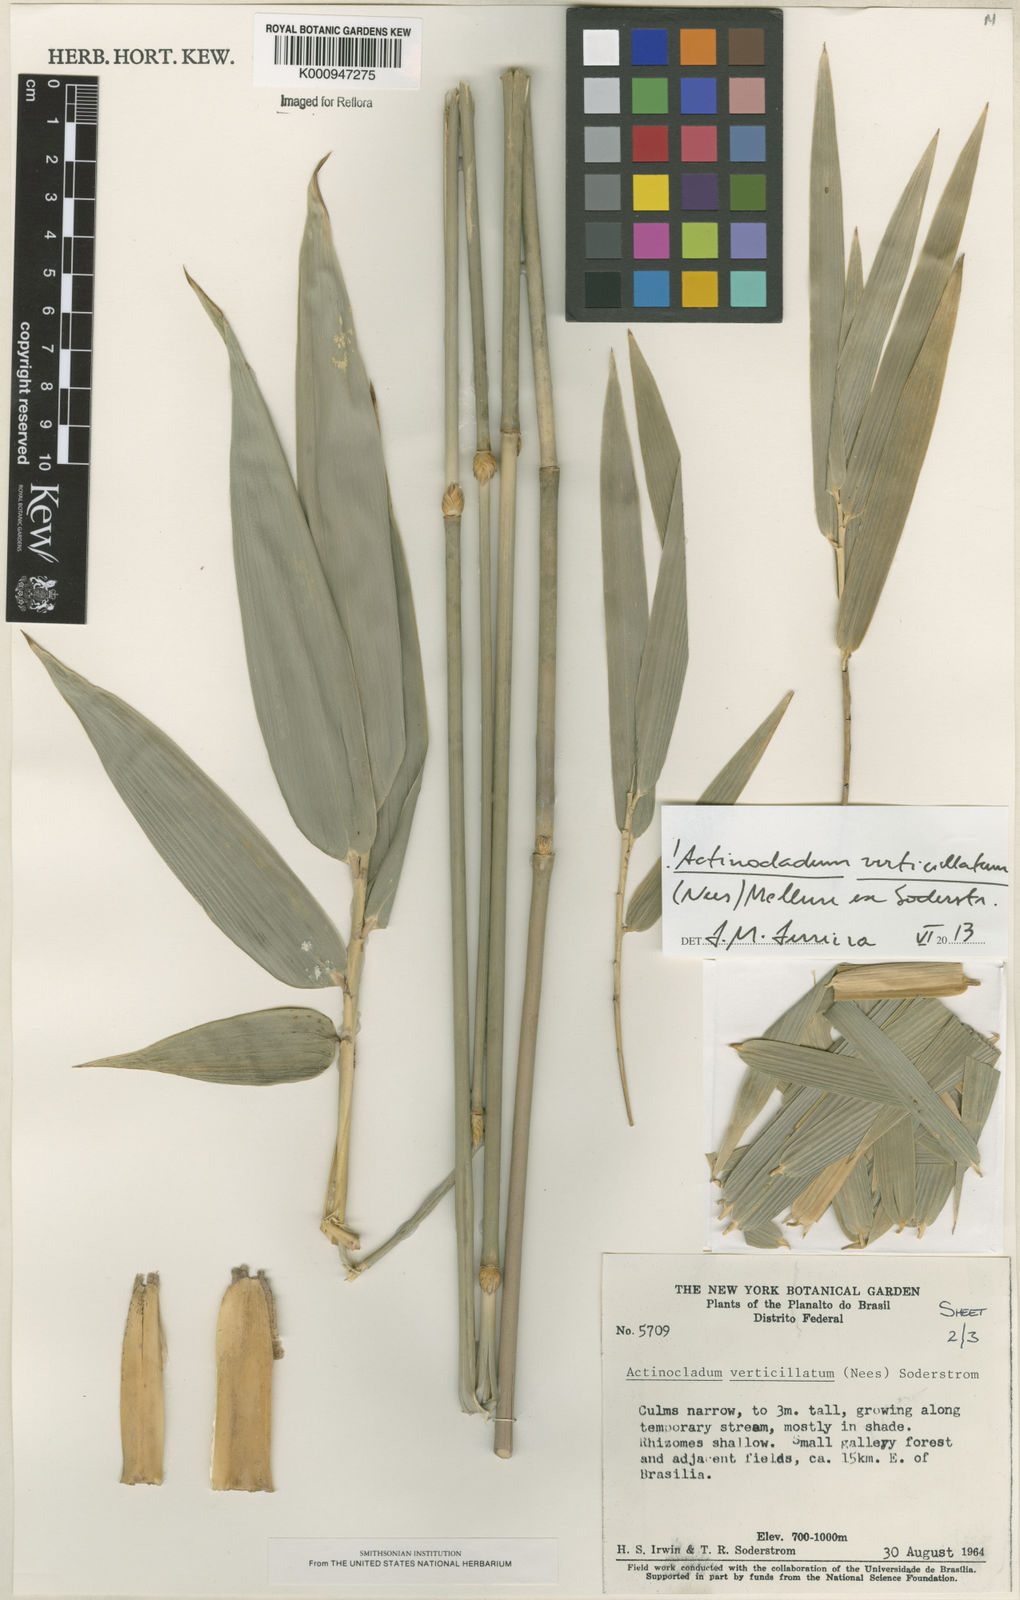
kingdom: Plantae
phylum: Tracheophyta
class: Liliopsida
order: Poales
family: Poaceae
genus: Actinocladum
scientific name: Actinocladum verticillatum
